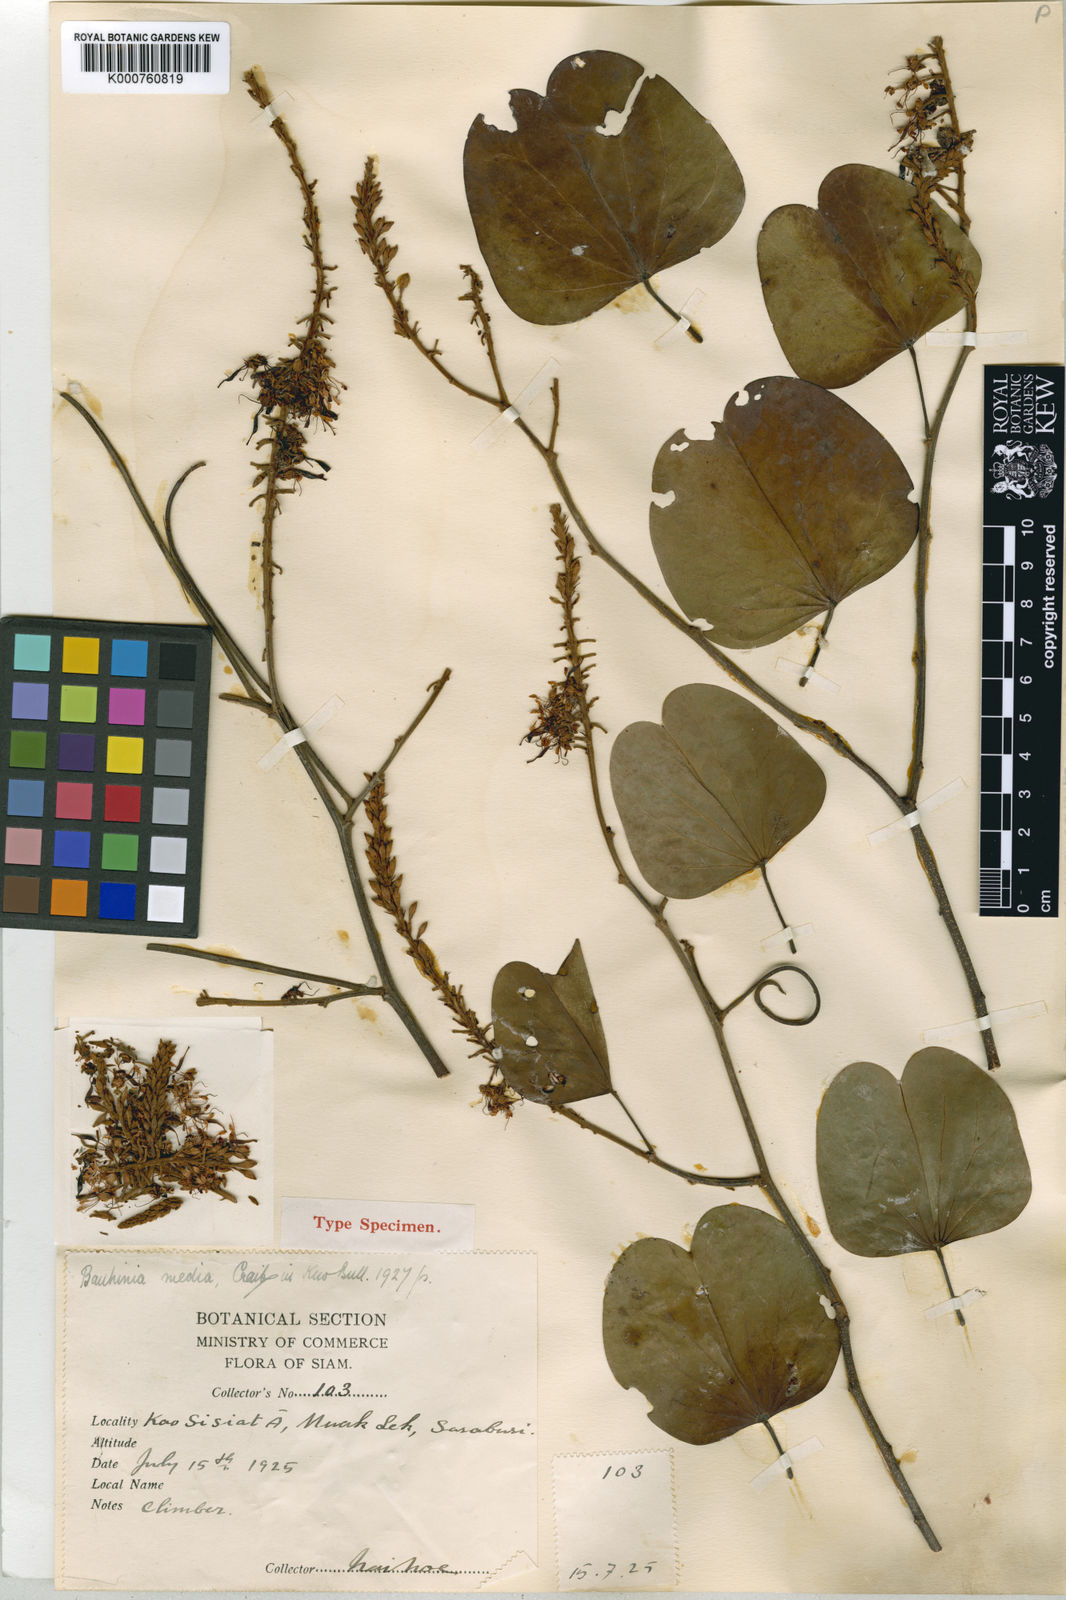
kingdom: Plantae
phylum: Tracheophyta
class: Magnoliopsida
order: Fabales
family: Fabaceae
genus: Phanera
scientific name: Phanera harmsiana
